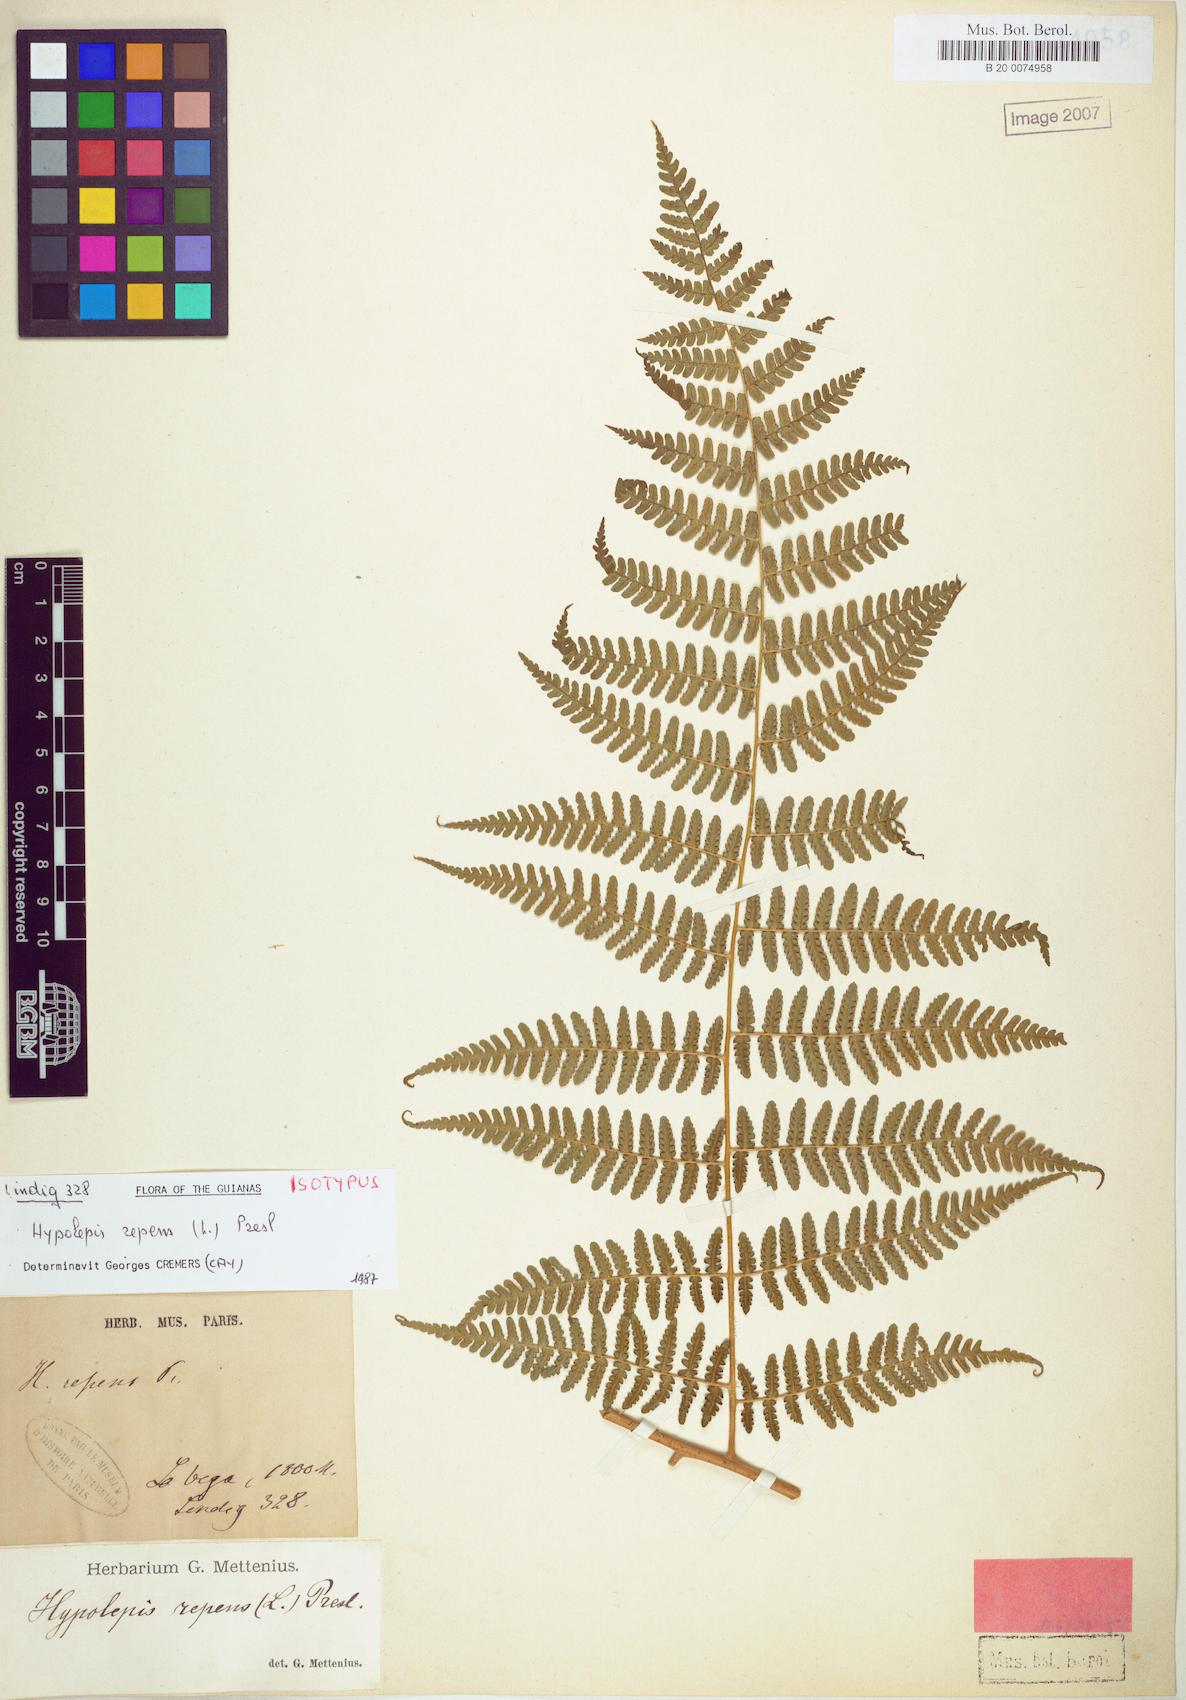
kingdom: Plantae
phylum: Tracheophyta
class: Polypodiopsida
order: Polypodiales
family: Dennstaedtiaceae
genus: Hypolepis
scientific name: Hypolepis repens
